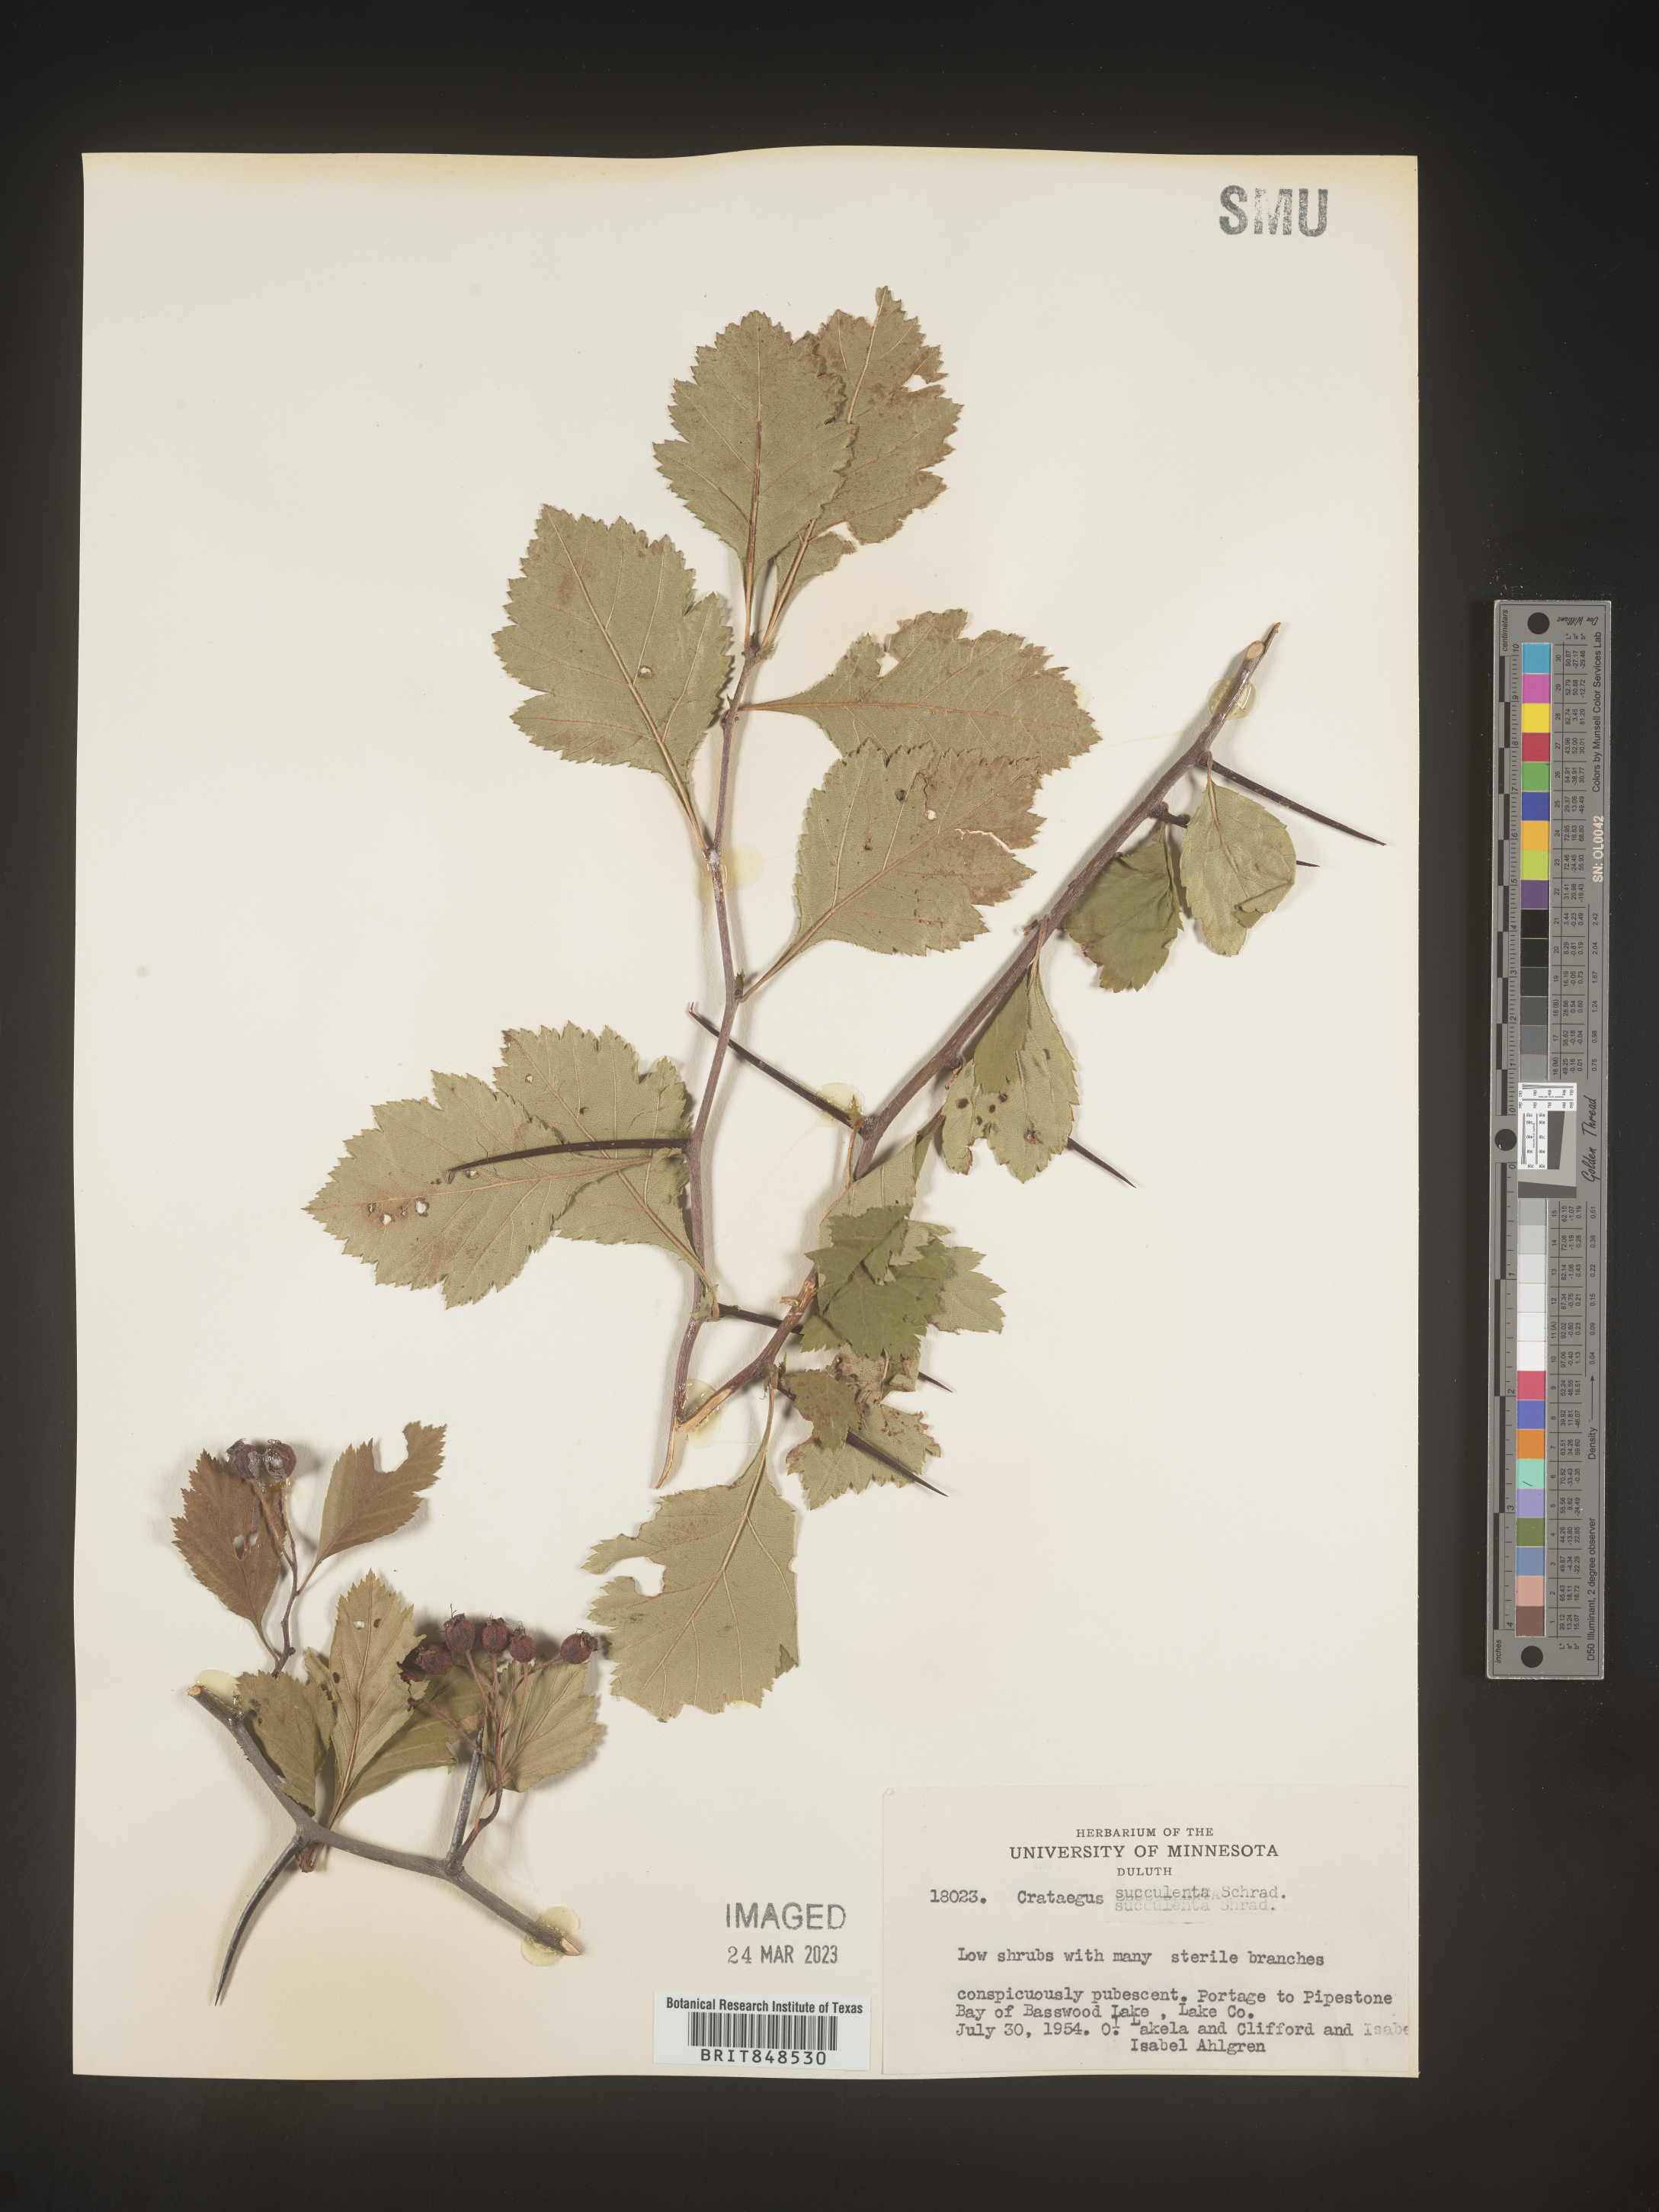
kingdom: Plantae
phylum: Tracheophyta
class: Magnoliopsida
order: Rosales
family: Rosaceae
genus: Crataegus
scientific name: Crataegus succulenta
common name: Fleshy hawthorn
